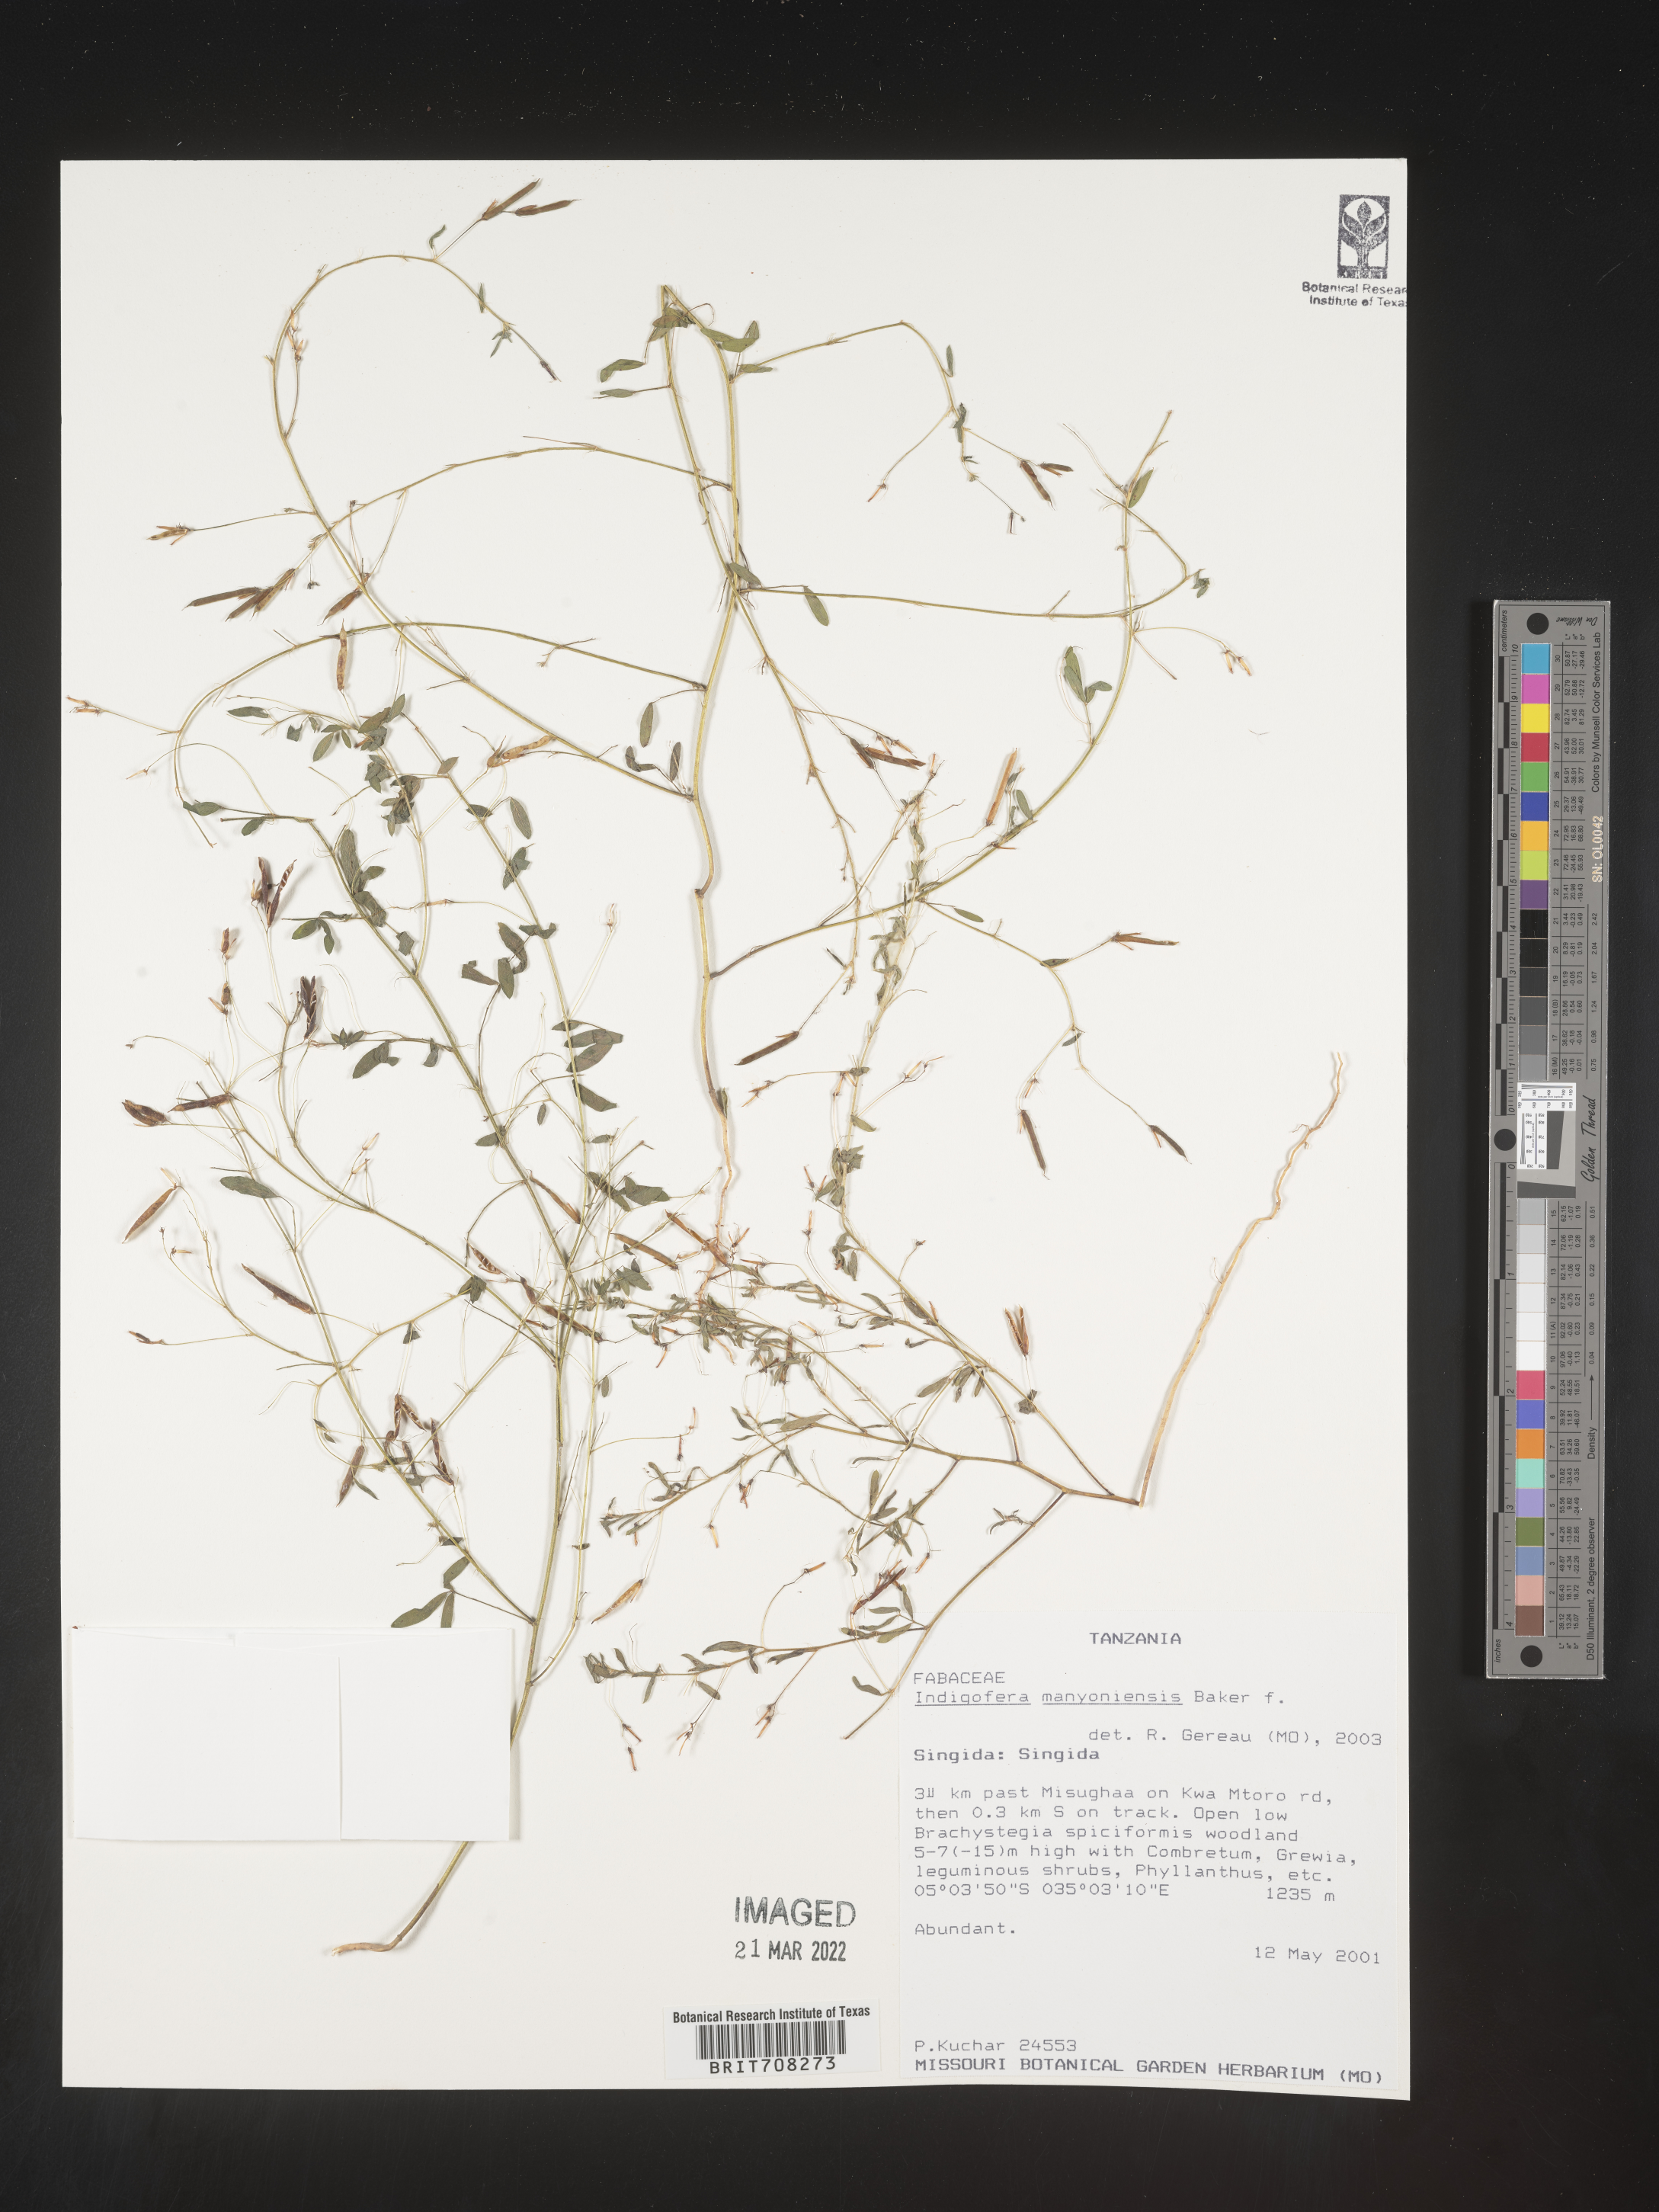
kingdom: Plantae
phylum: Tracheophyta
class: Magnoliopsida
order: Fabales
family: Fabaceae
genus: Indigofera
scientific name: Indigofera
